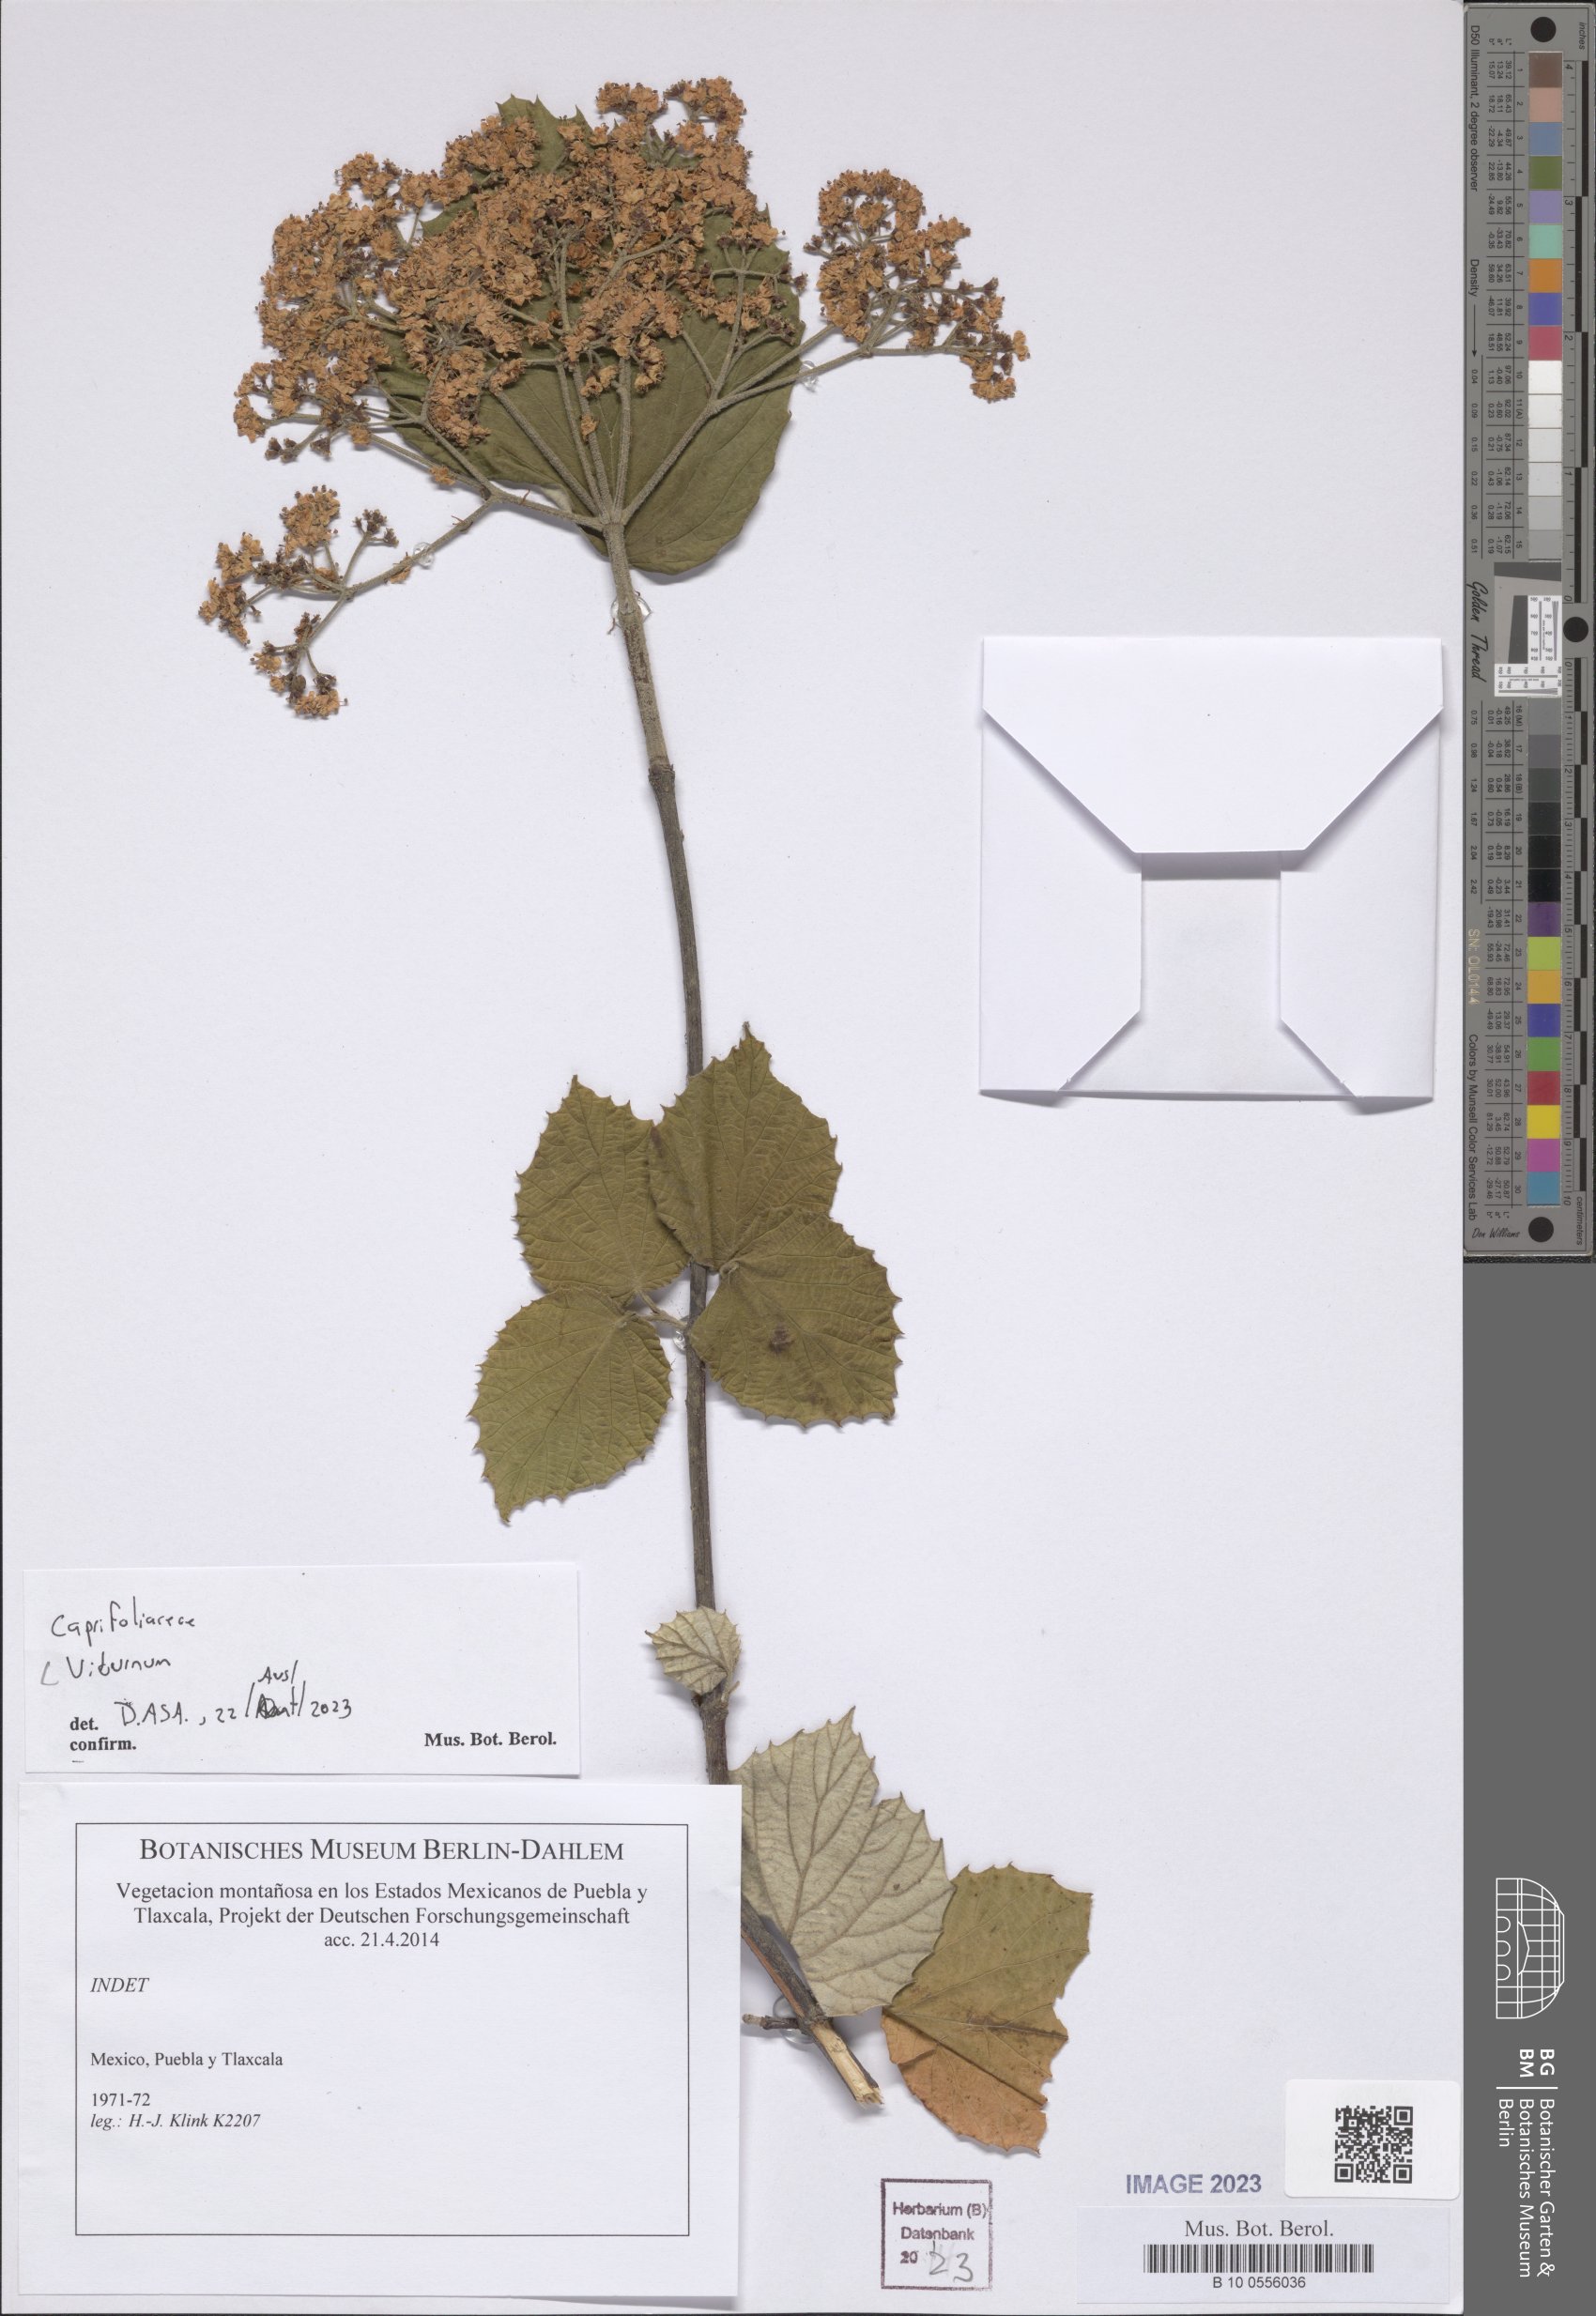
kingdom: Plantae
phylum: Tracheophyta
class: Magnoliopsida
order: Dipsacales
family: Viburnaceae
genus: Viburnum
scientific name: Viburnum
